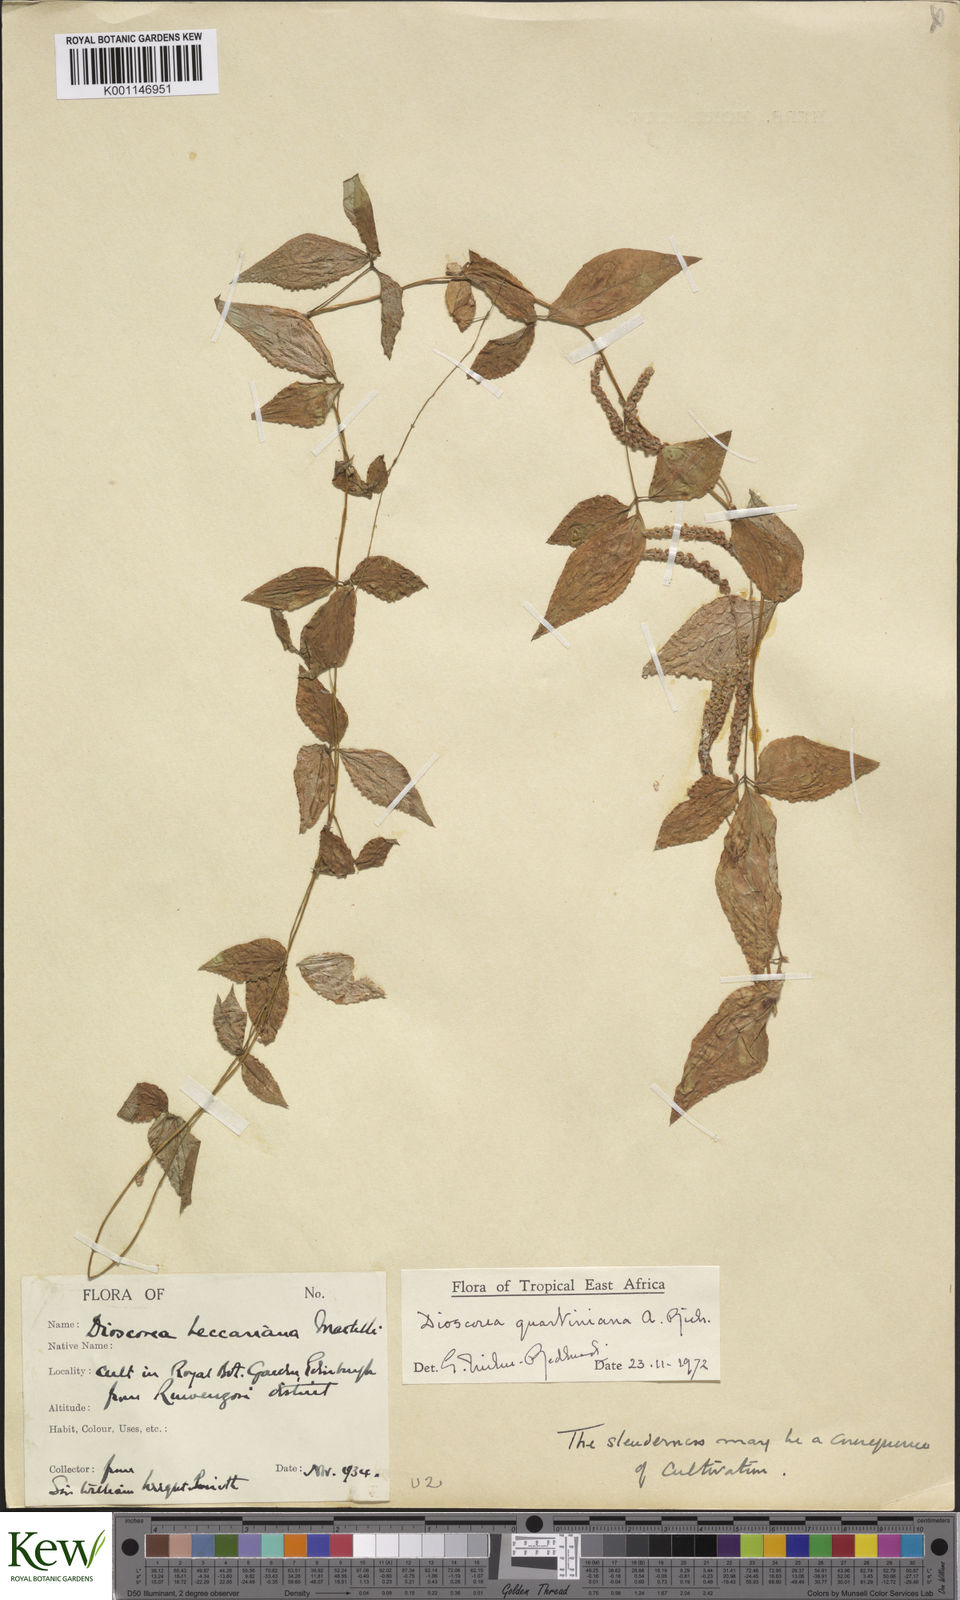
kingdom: Plantae
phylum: Tracheophyta
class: Liliopsida
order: Dioscoreales
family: Dioscoreaceae
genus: Dioscorea
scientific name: Dioscorea quartiniana
